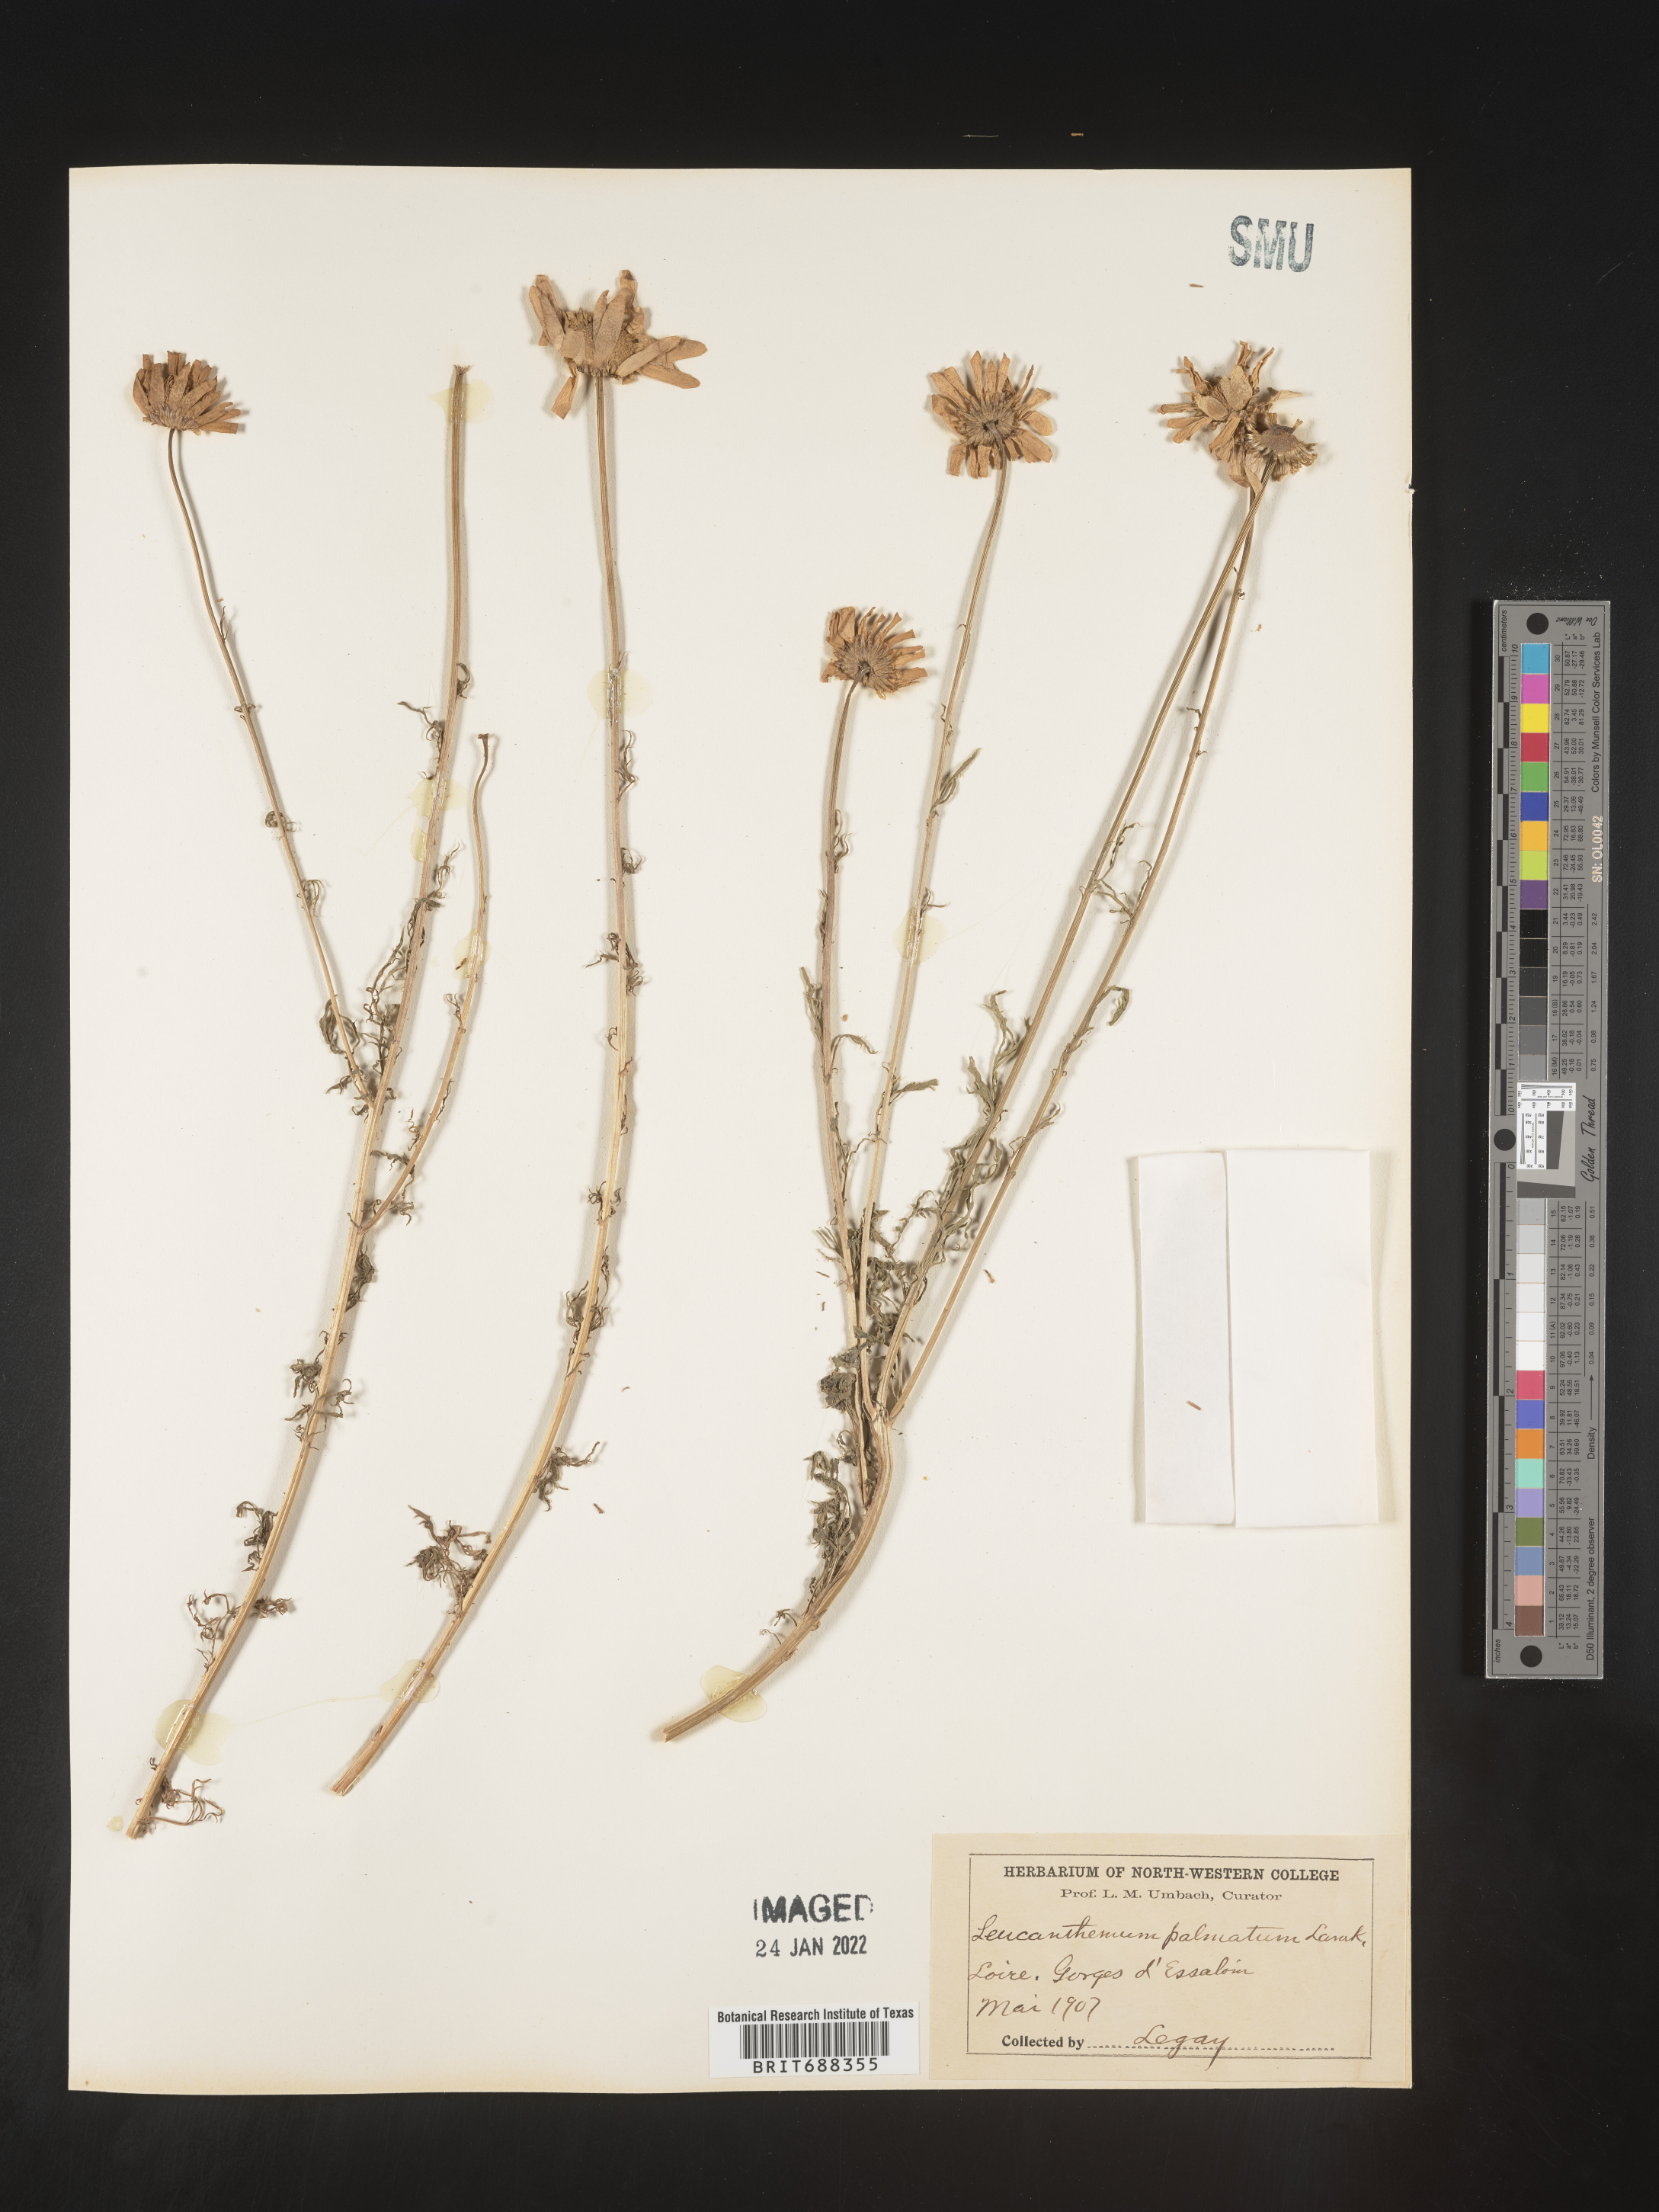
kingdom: Plantae
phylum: Tracheophyta
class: Magnoliopsida
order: Asterales
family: Asteraceae
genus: Chrysanthemum
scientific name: Chrysanthemum
